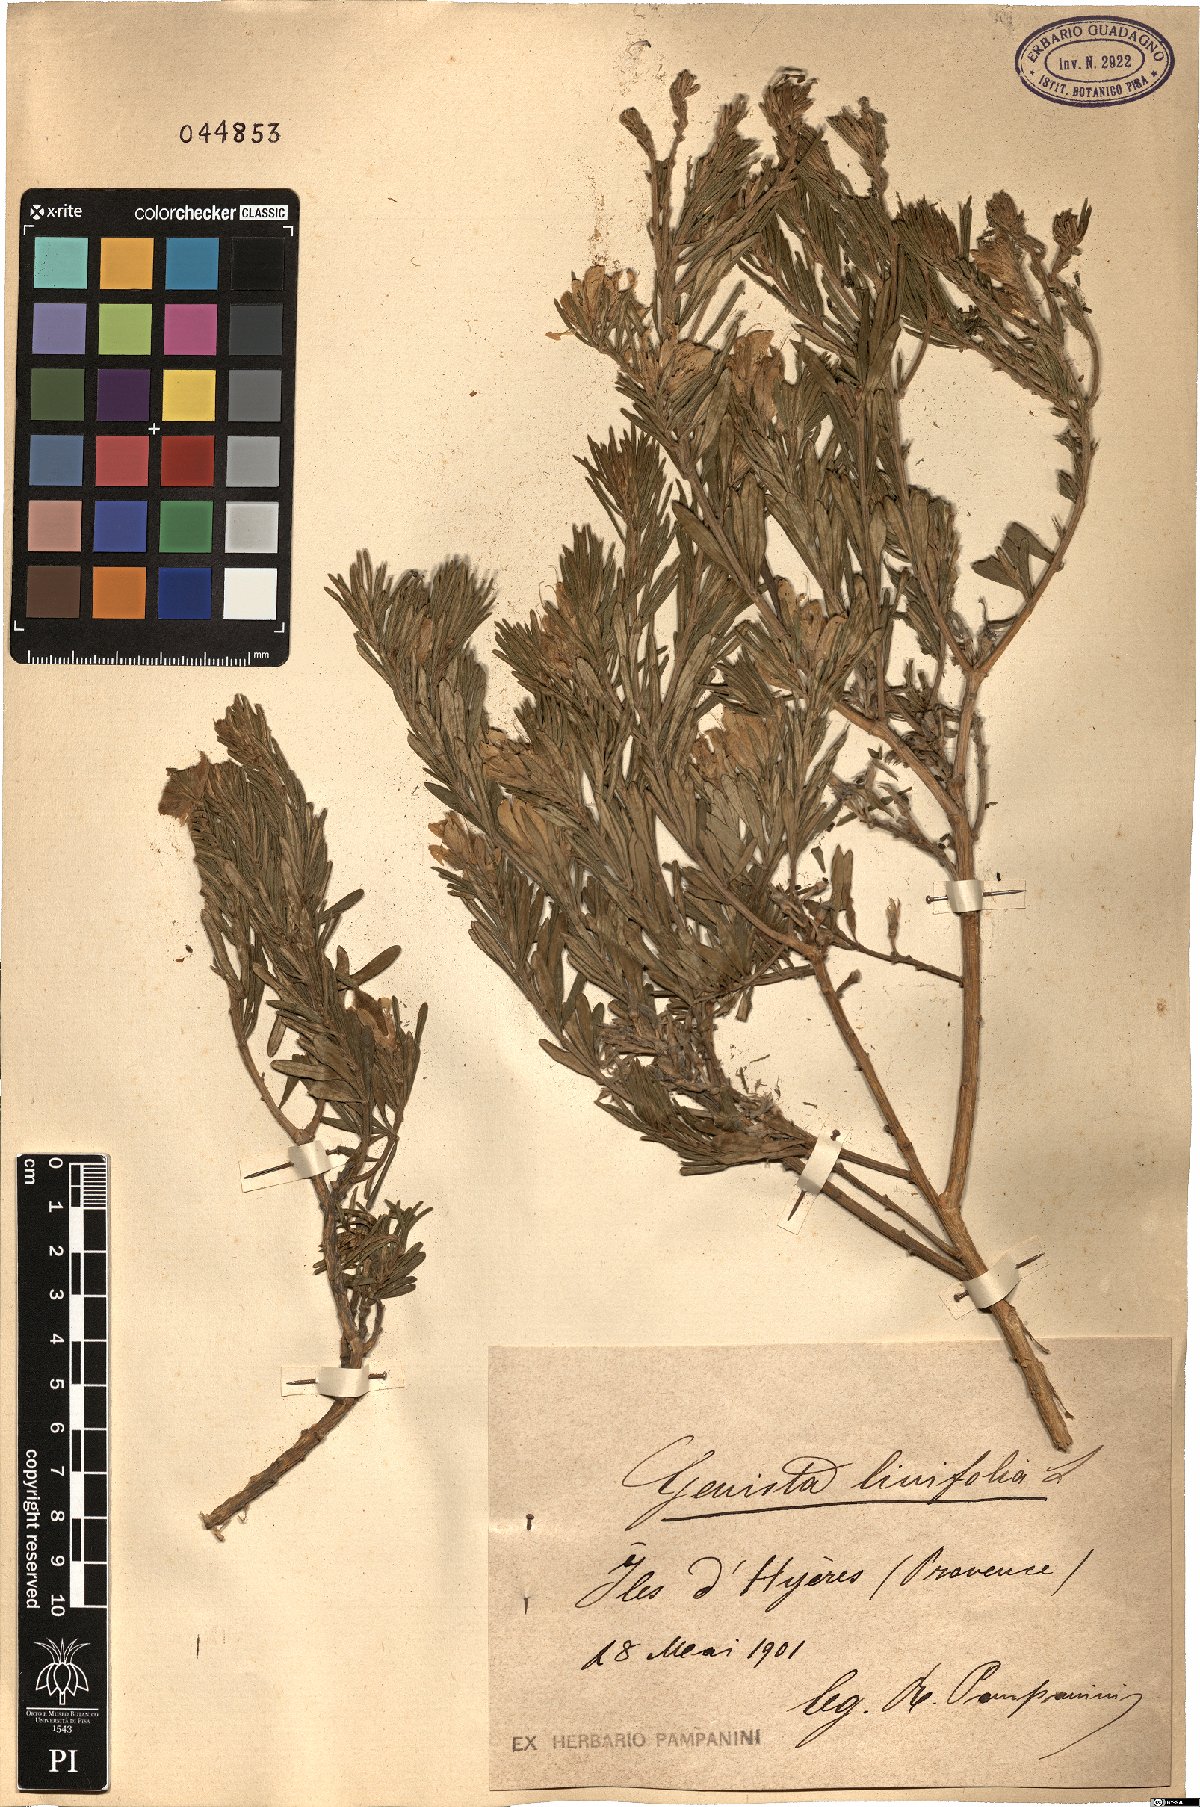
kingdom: Plantae
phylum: Tracheophyta
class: Magnoliopsida
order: Fabales
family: Fabaceae
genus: Genista
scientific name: Genista linifolia
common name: Mediterranean broom
